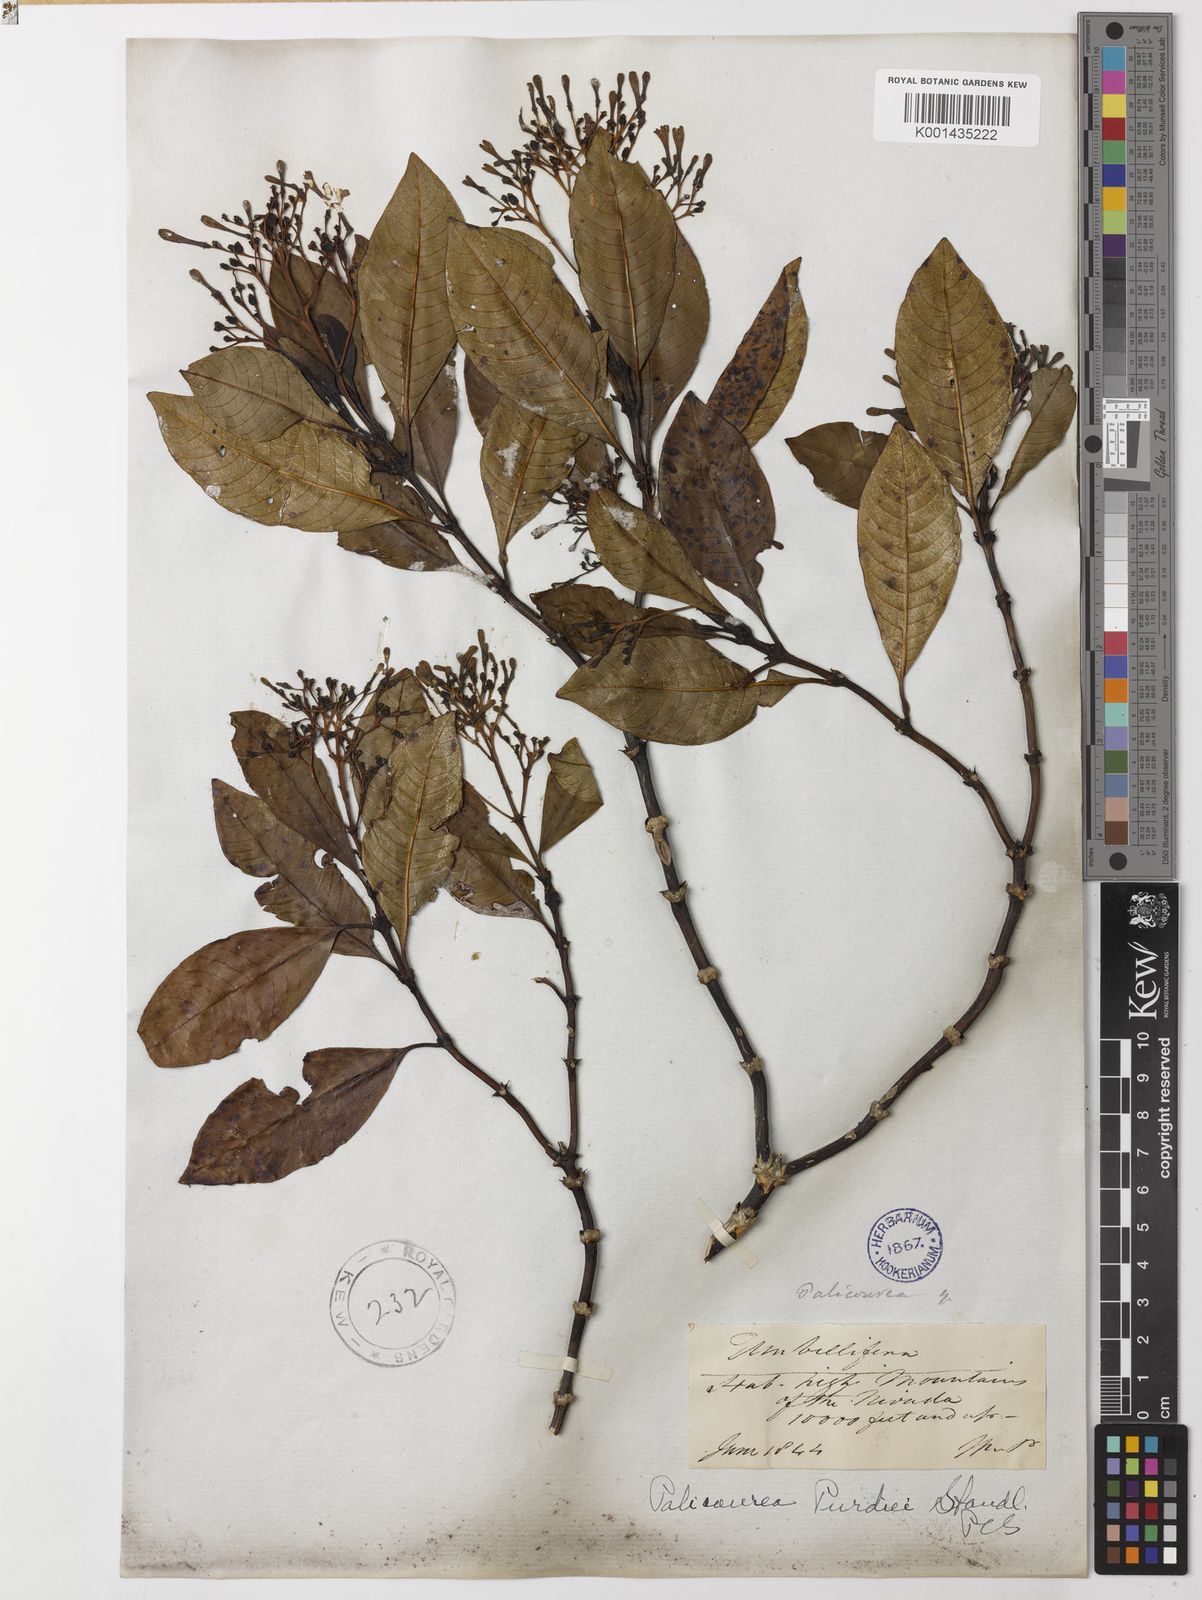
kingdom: Plantae
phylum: Tracheophyta
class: Magnoliopsida
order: Gentianales
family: Rubiaceae
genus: Palicourea
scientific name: Palicourea purdiei
